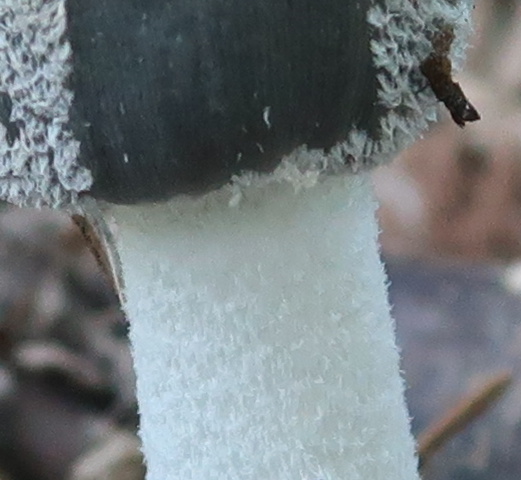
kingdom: Fungi
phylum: Basidiomycota
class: Agaricomycetes
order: Agaricales
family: Psathyrellaceae
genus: Coprinopsis
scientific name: Coprinopsis lagopus
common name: dunstokket blækhat
